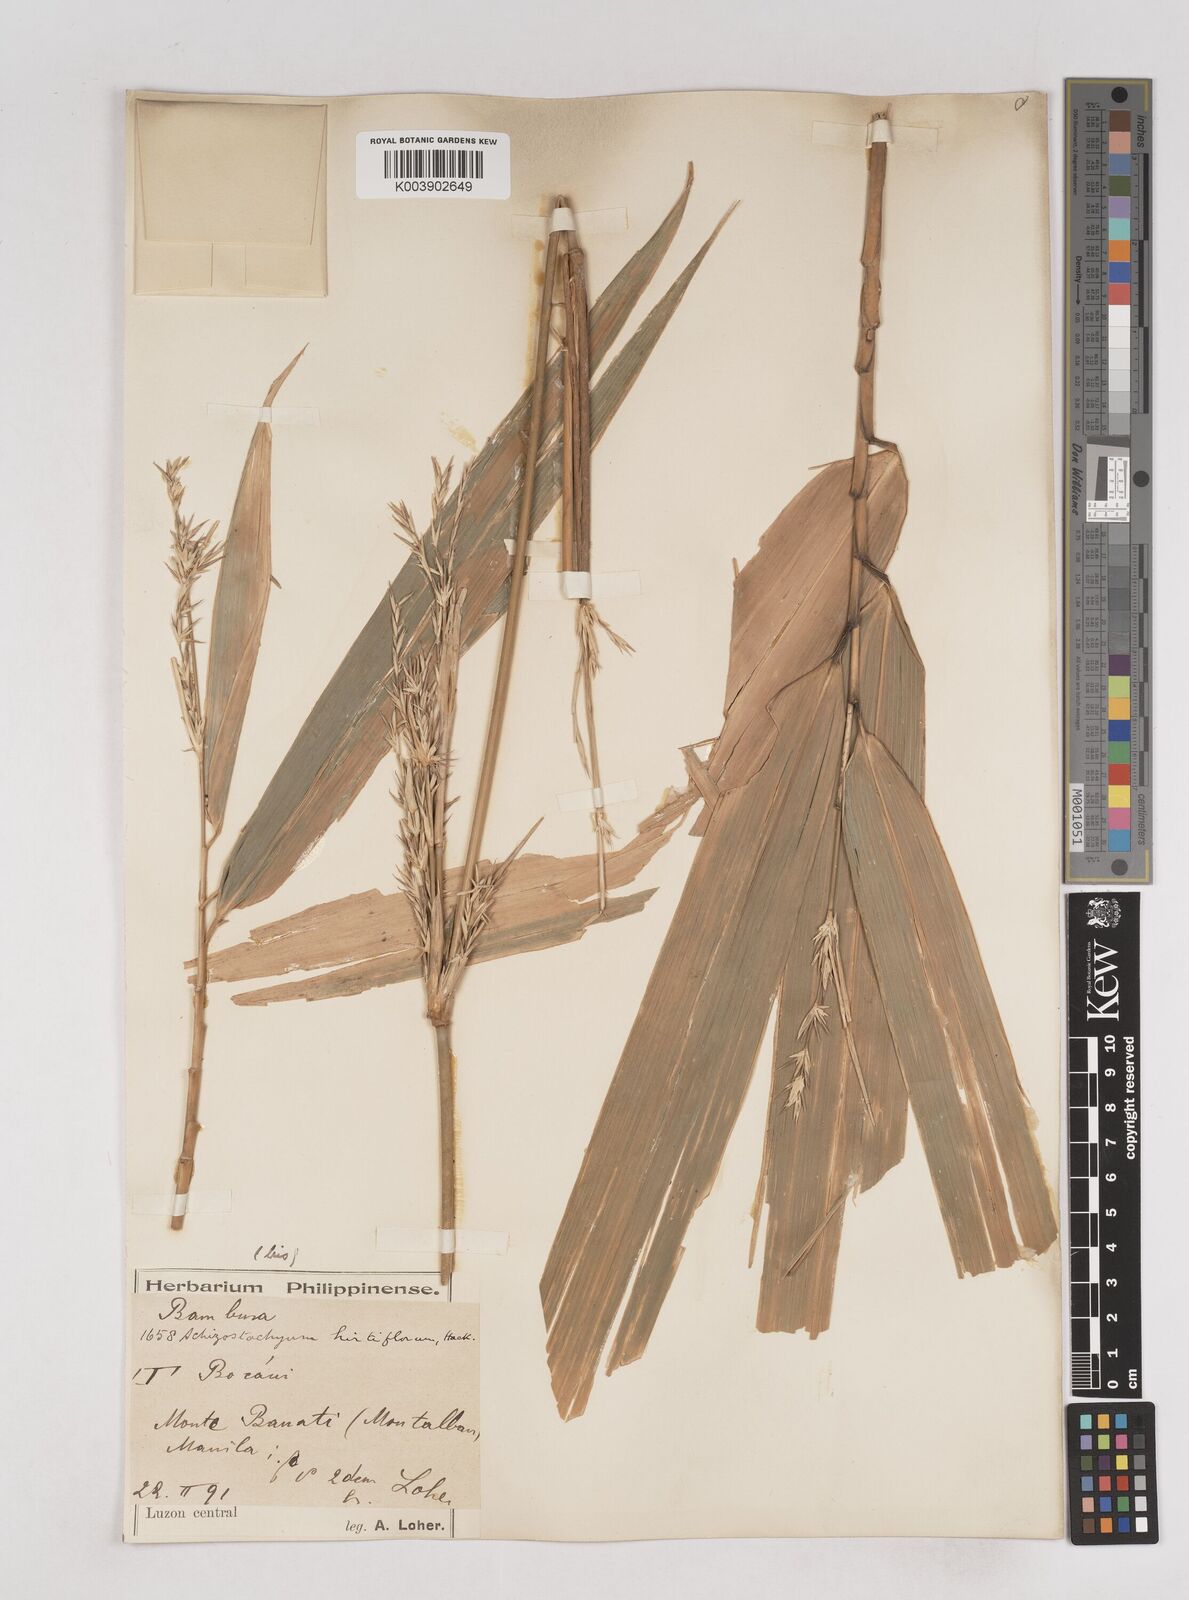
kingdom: Plantae
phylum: Tracheophyta
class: Liliopsida
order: Poales
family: Poaceae
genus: Schizostachyum
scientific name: Schizostachyum lumampao
